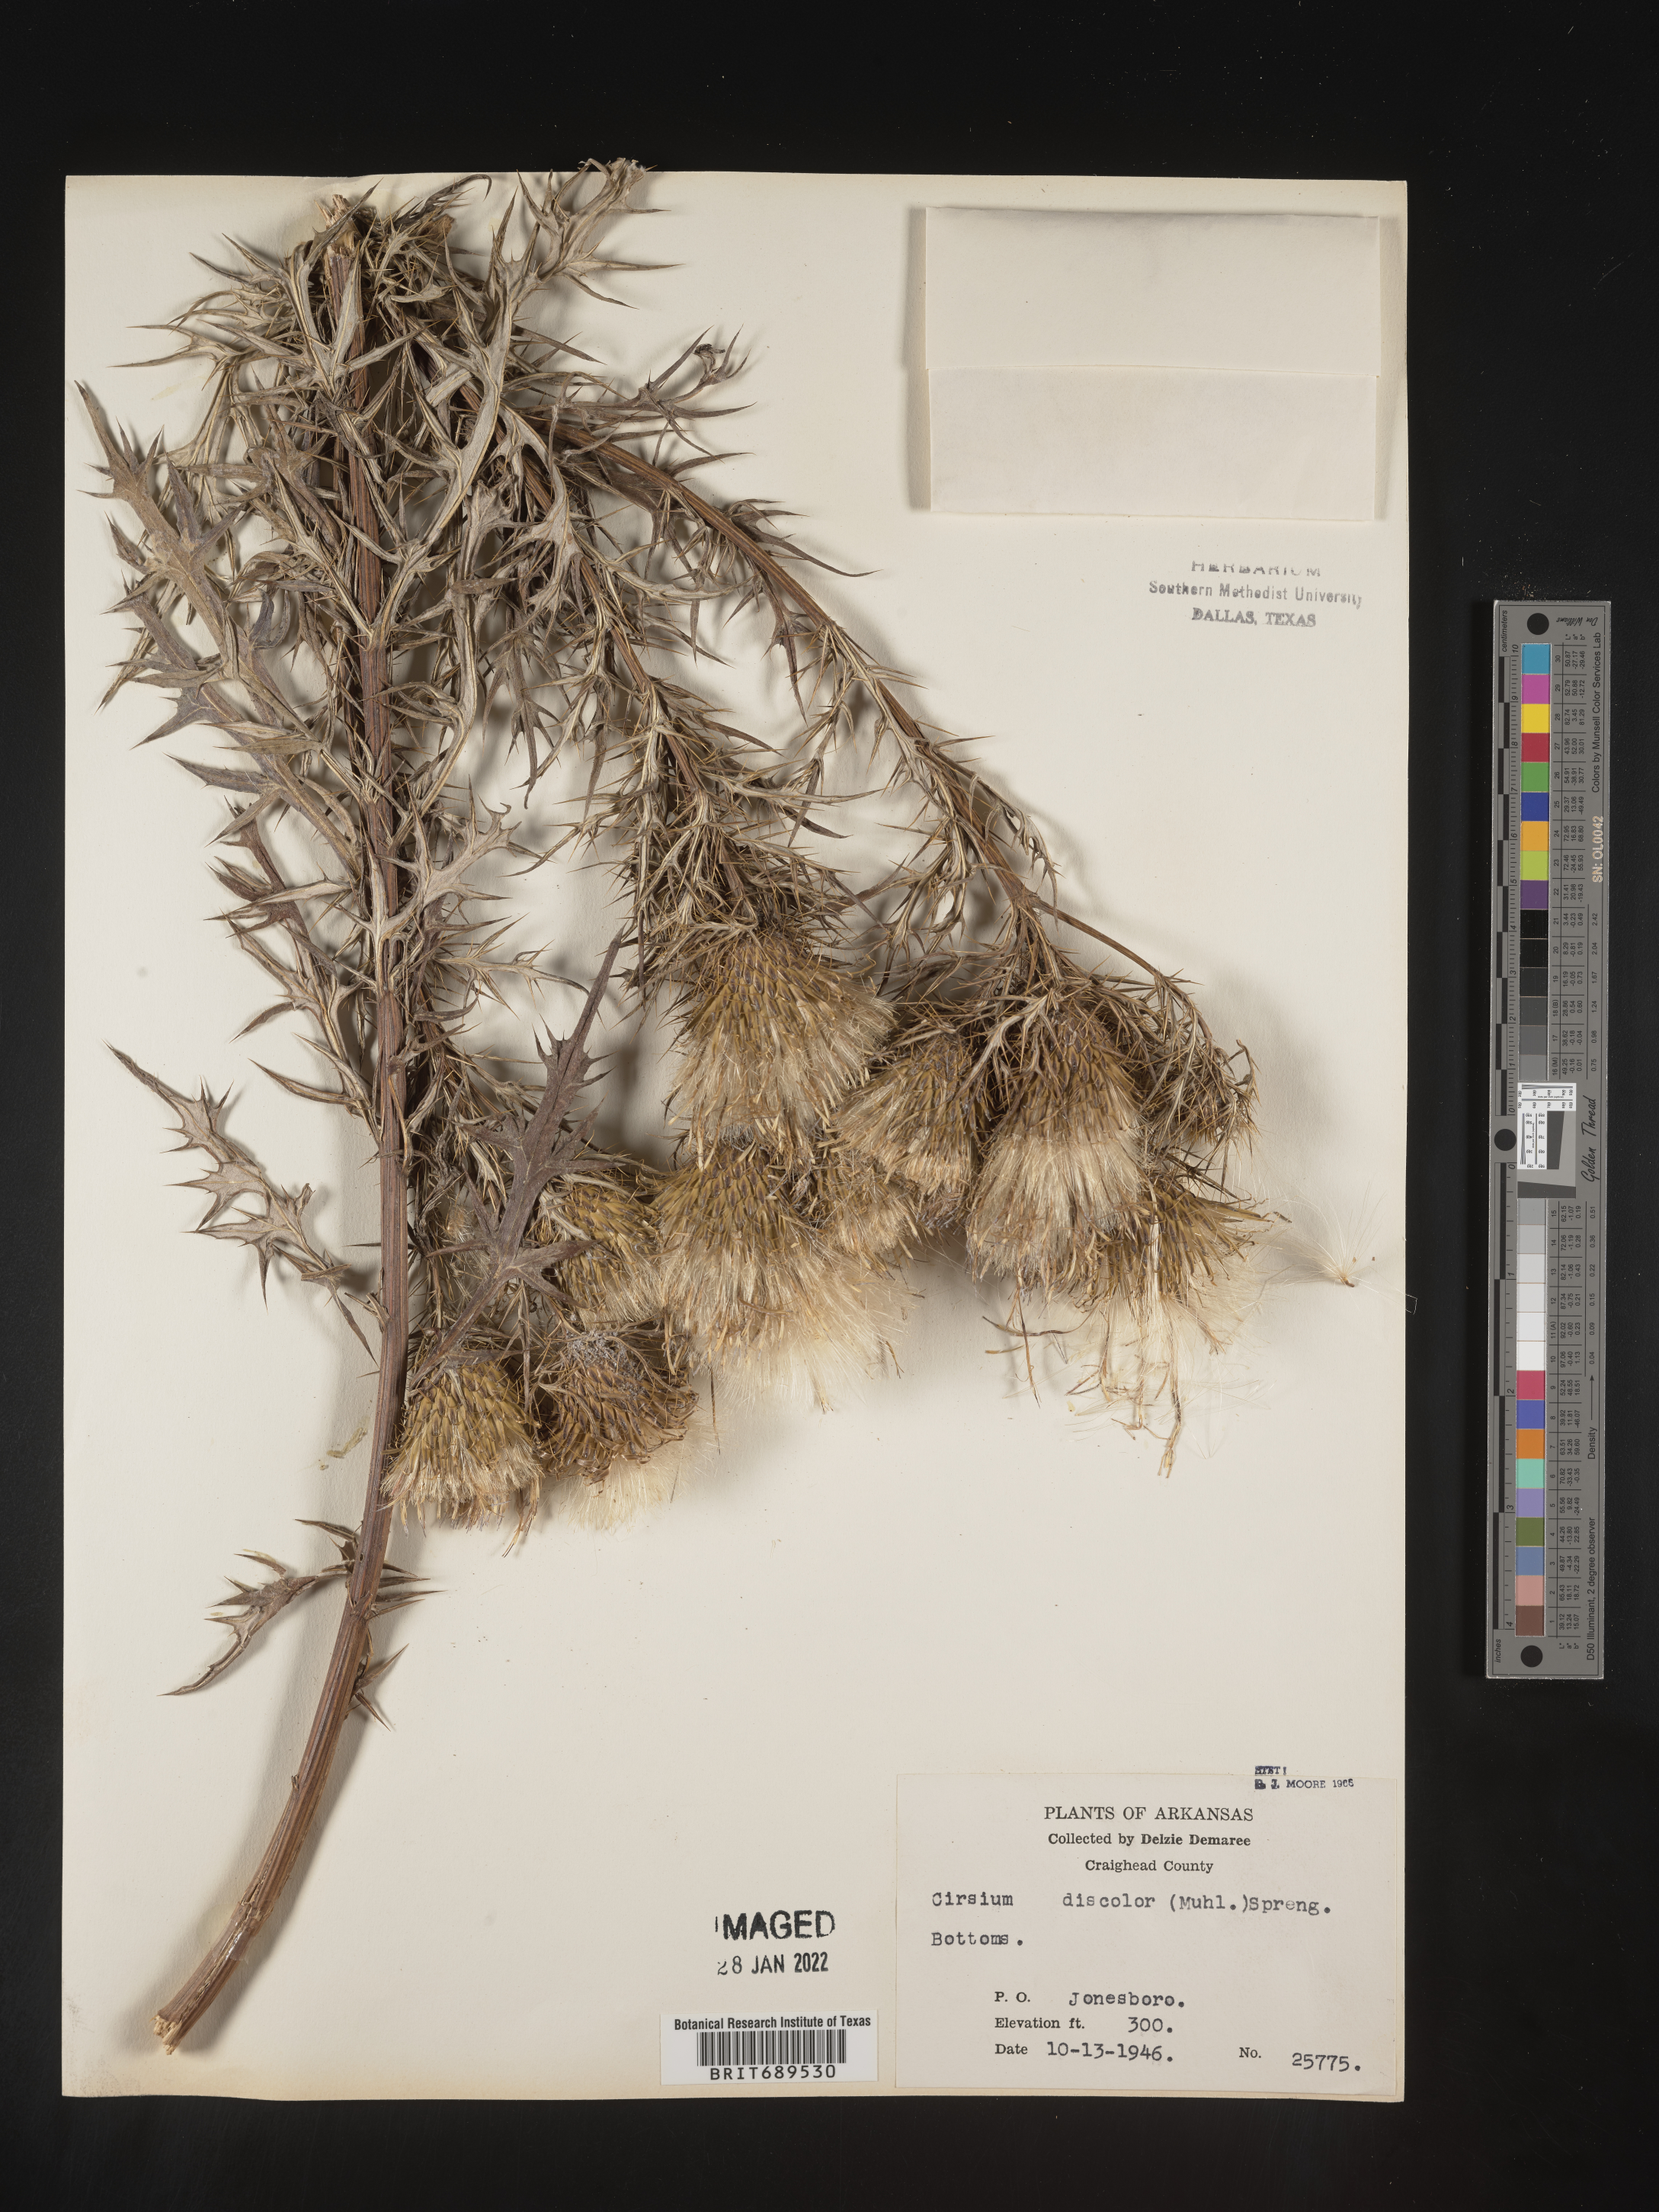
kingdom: Plantae
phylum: Tracheophyta
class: Magnoliopsida
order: Asterales
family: Asteraceae
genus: Cirsium
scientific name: Cirsium discolor
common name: Field thistle
